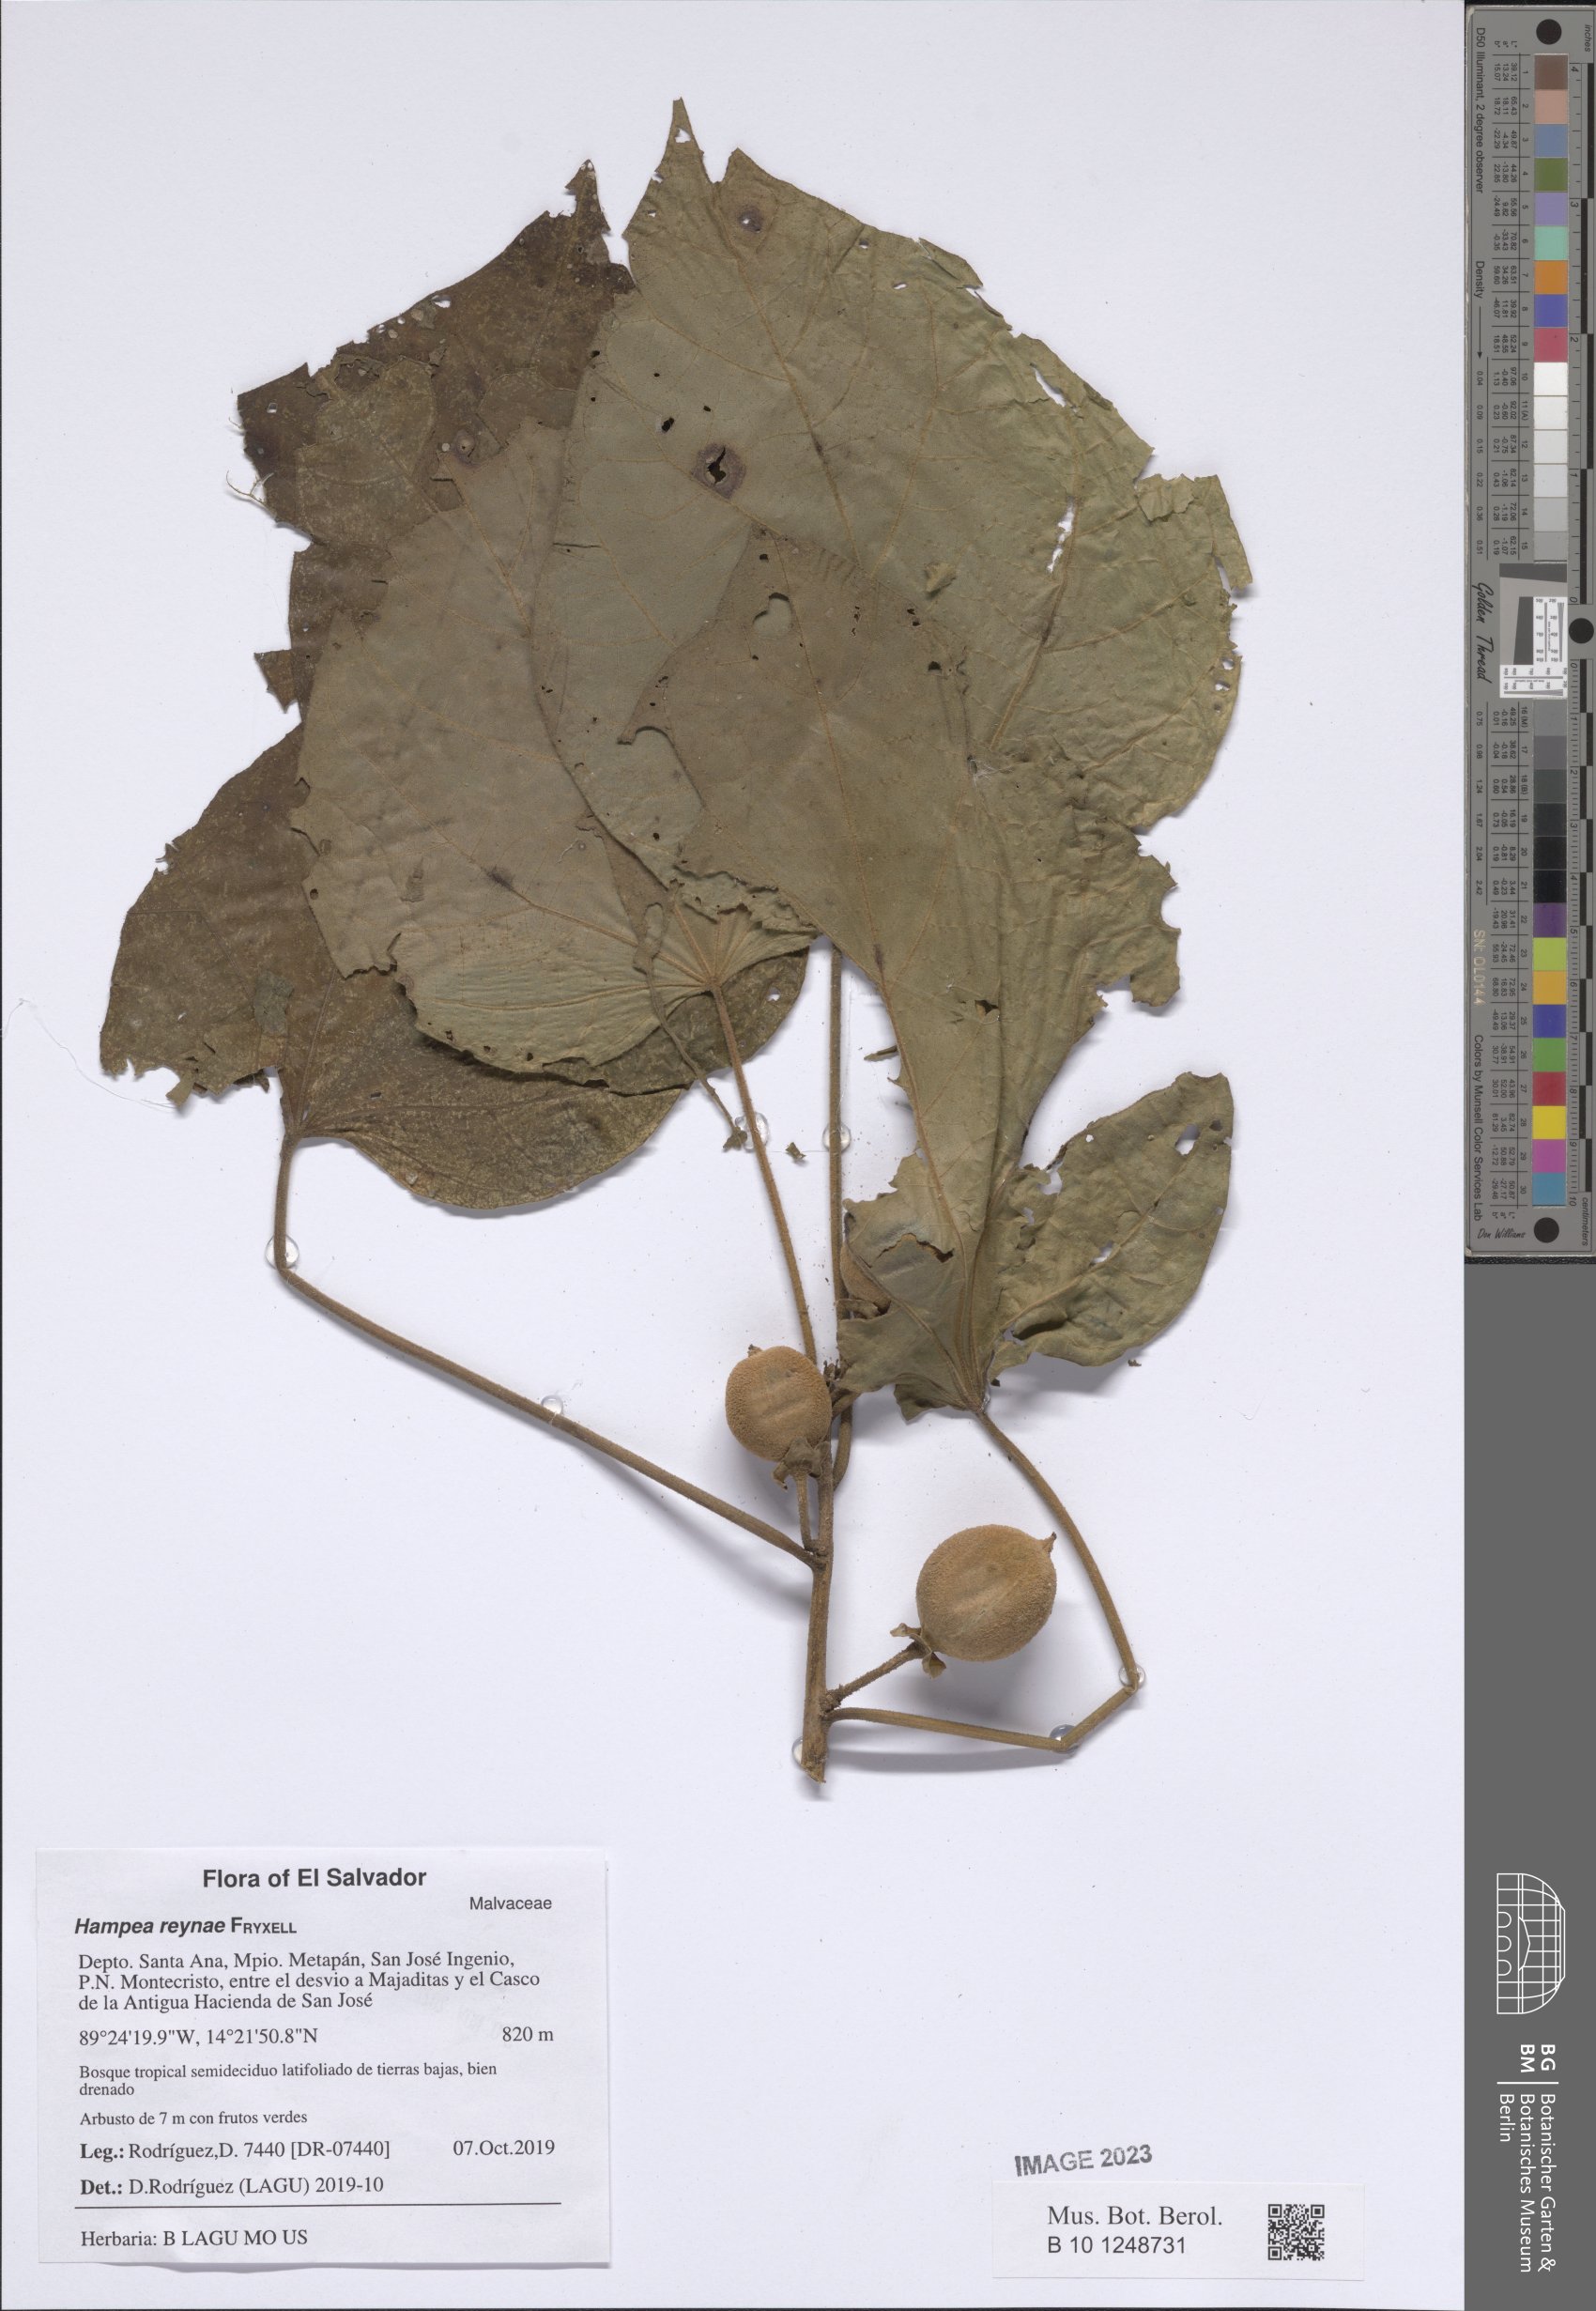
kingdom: Plantae
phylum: Tracheophyta
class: Magnoliopsida
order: Malvales
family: Malvaceae
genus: Hampea
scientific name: Hampea reynae
